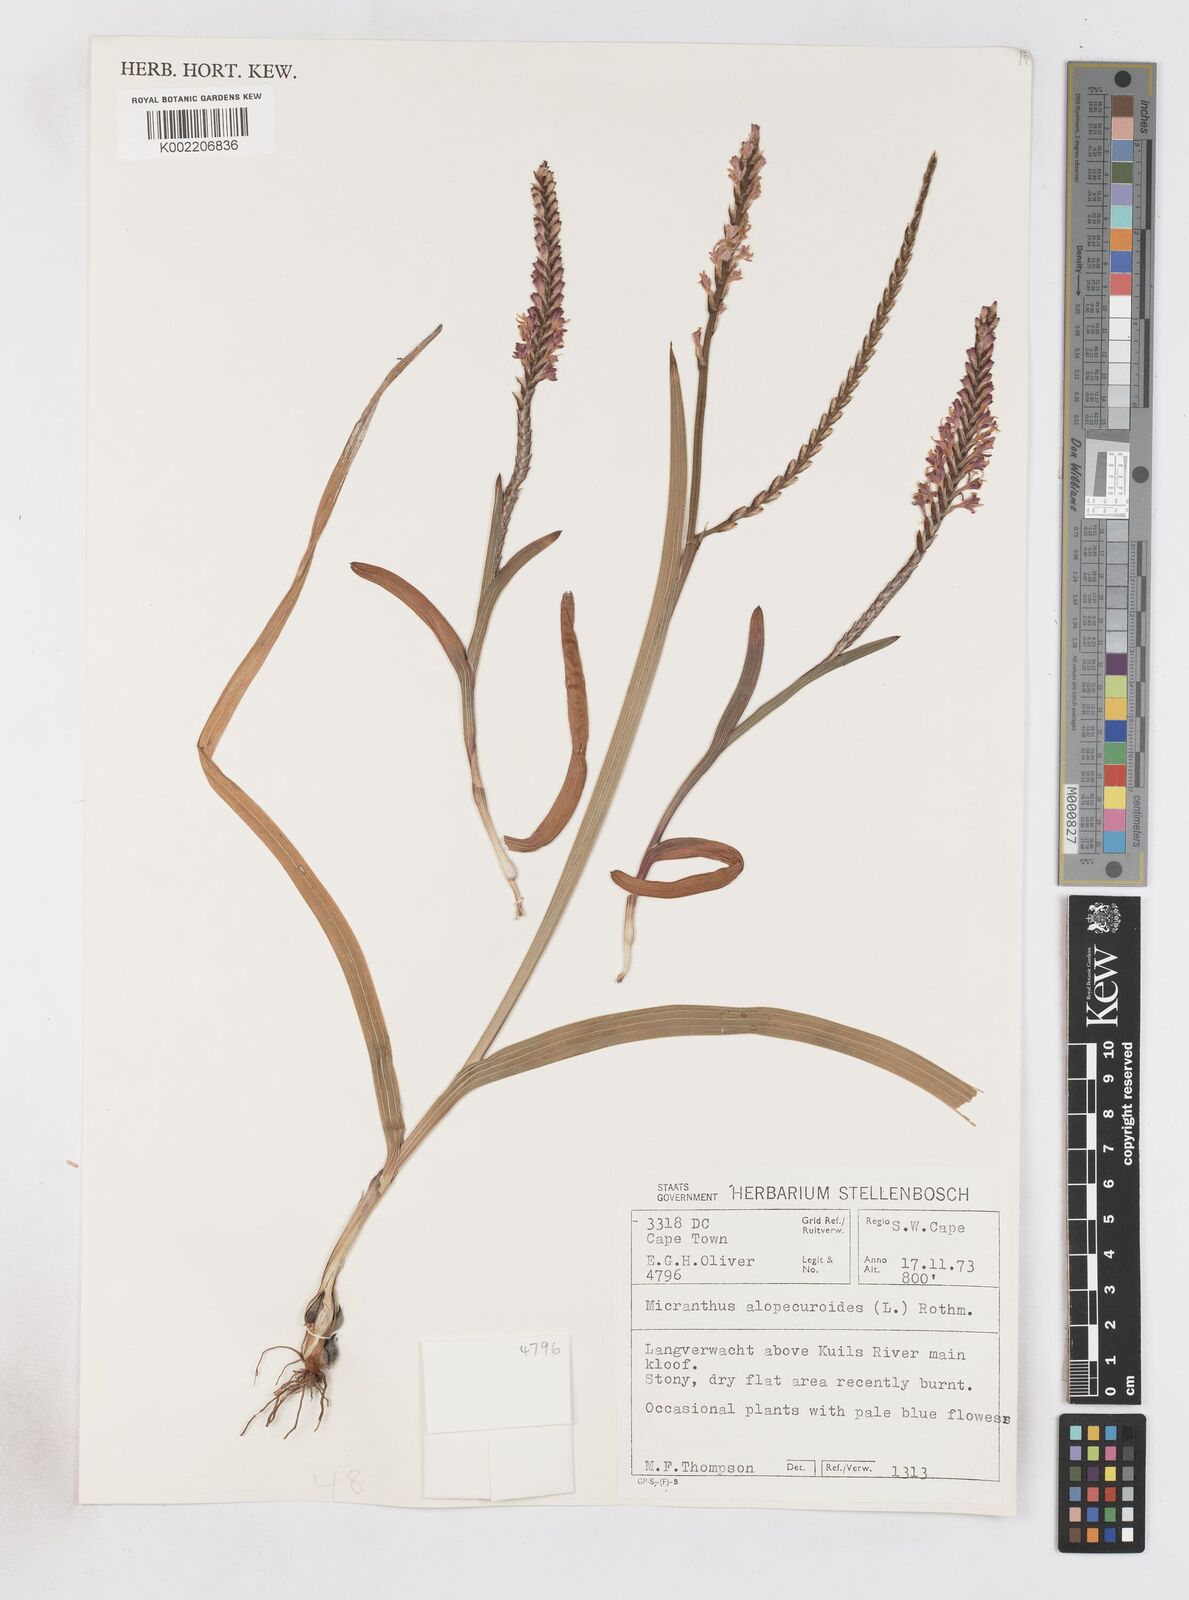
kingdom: Plantae
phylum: Tracheophyta
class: Liliopsida
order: Asparagales
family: Iridaceae
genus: Micranthus
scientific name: Micranthus alopecuroides
